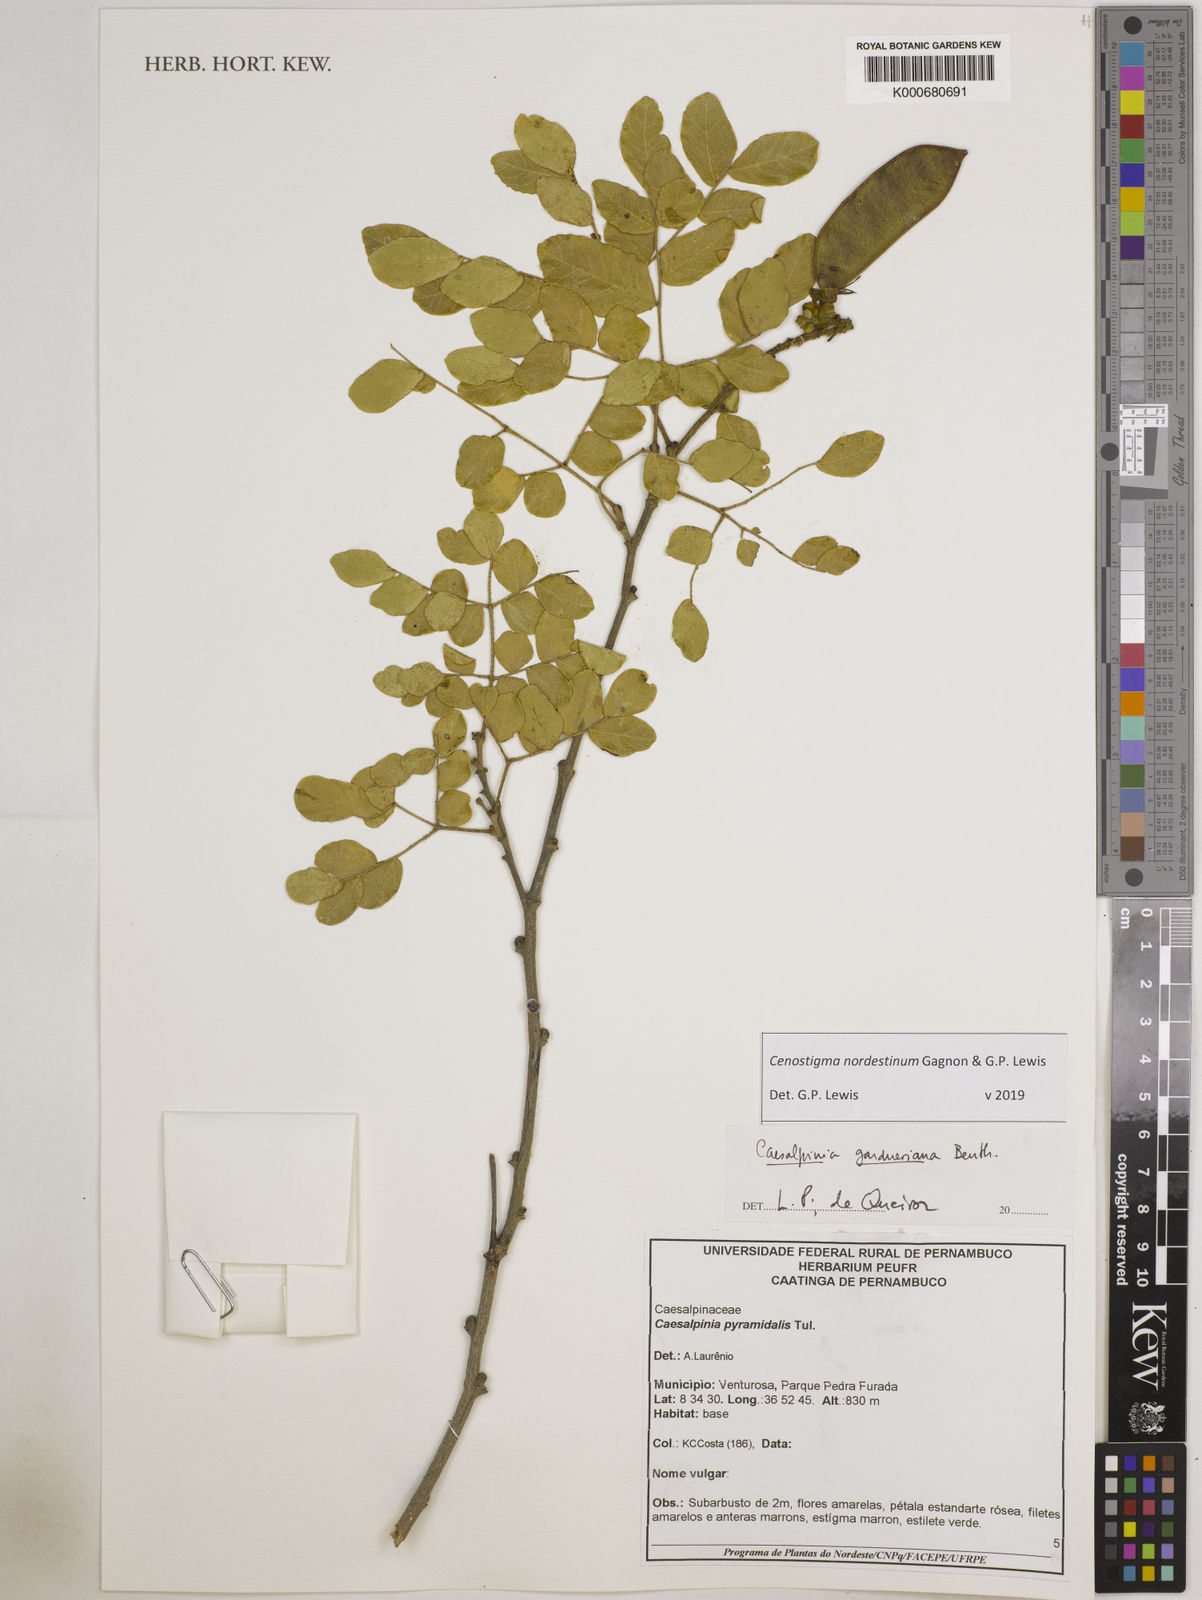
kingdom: Plantae
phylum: Tracheophyta
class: Magnoliopsida
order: Fabales
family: Fabaceae
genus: Cenostigma
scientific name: Cenostigma nordestinum
